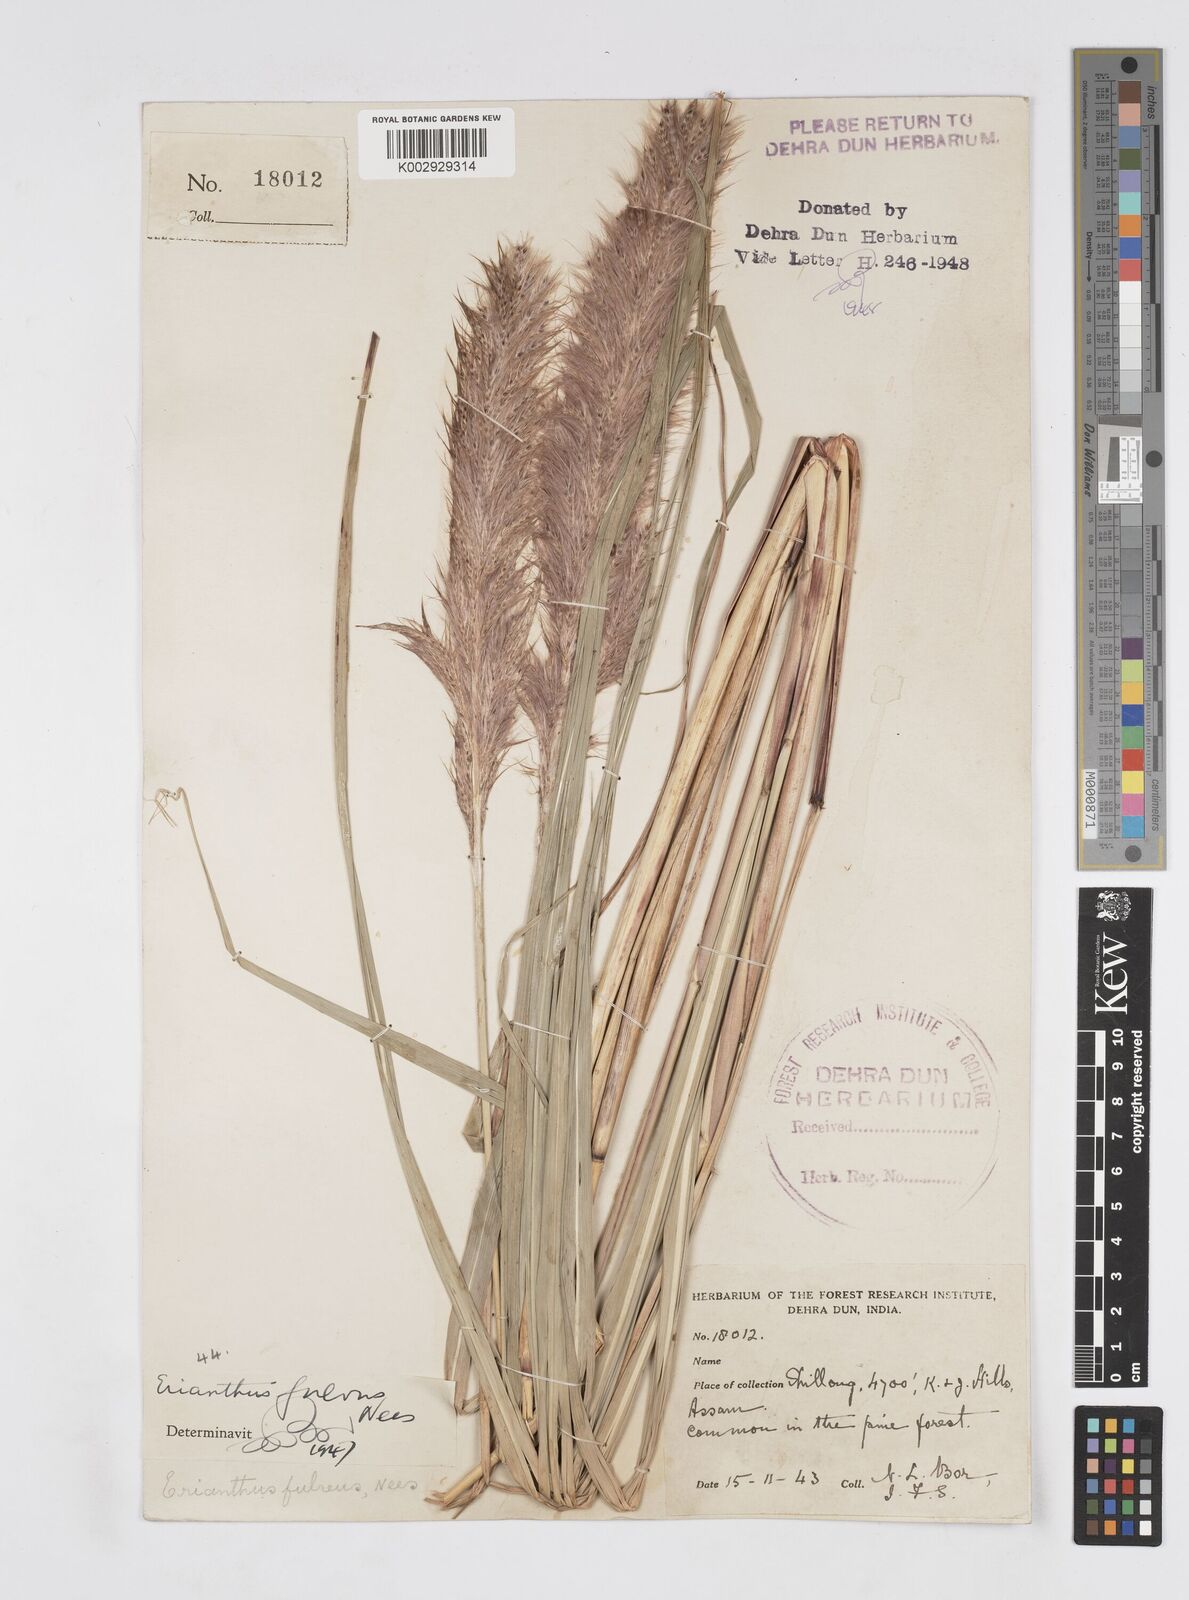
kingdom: Plantae
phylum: Tracheophyta
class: Liliopsida
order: Poales
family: Poaceae
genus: Tripidium
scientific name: Tripidium rufipilum
